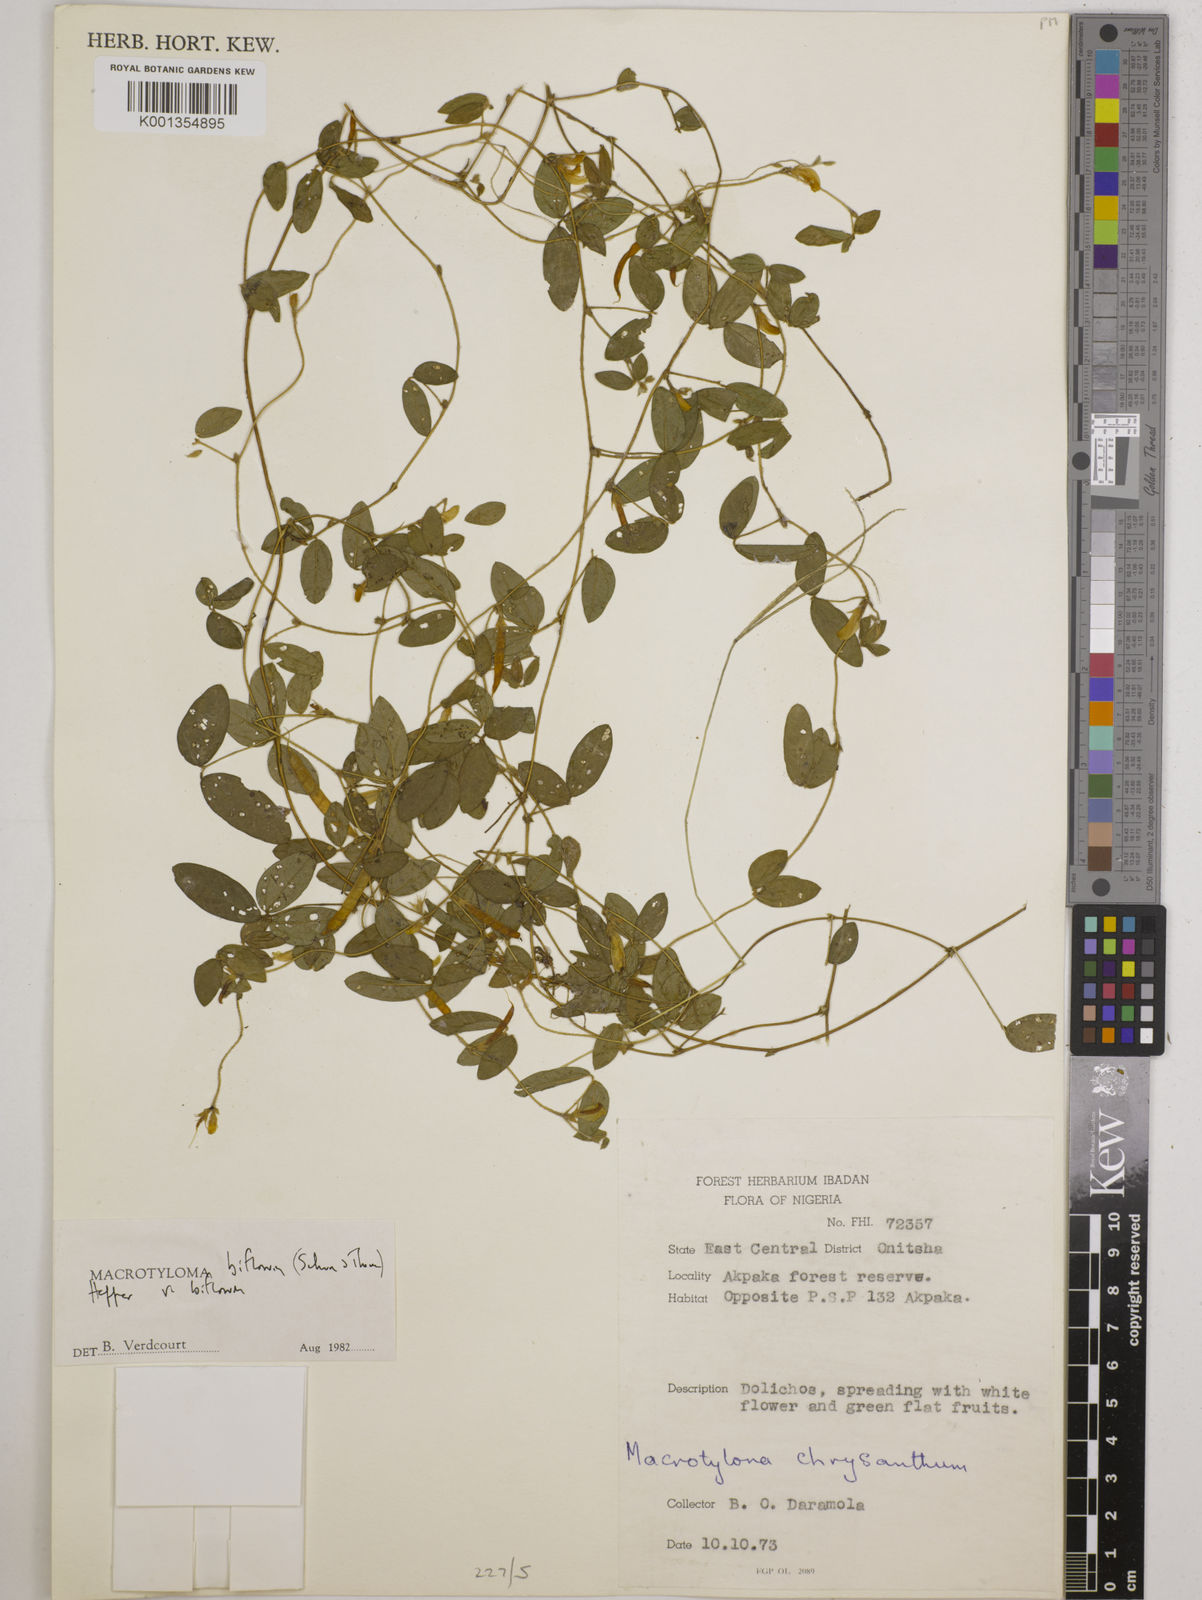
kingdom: Plantae
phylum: Tracheophyta
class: Magnoliopsida
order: Fabales
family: Fabaceae
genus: Macrotyloma
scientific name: Macrotyloma biflorum
